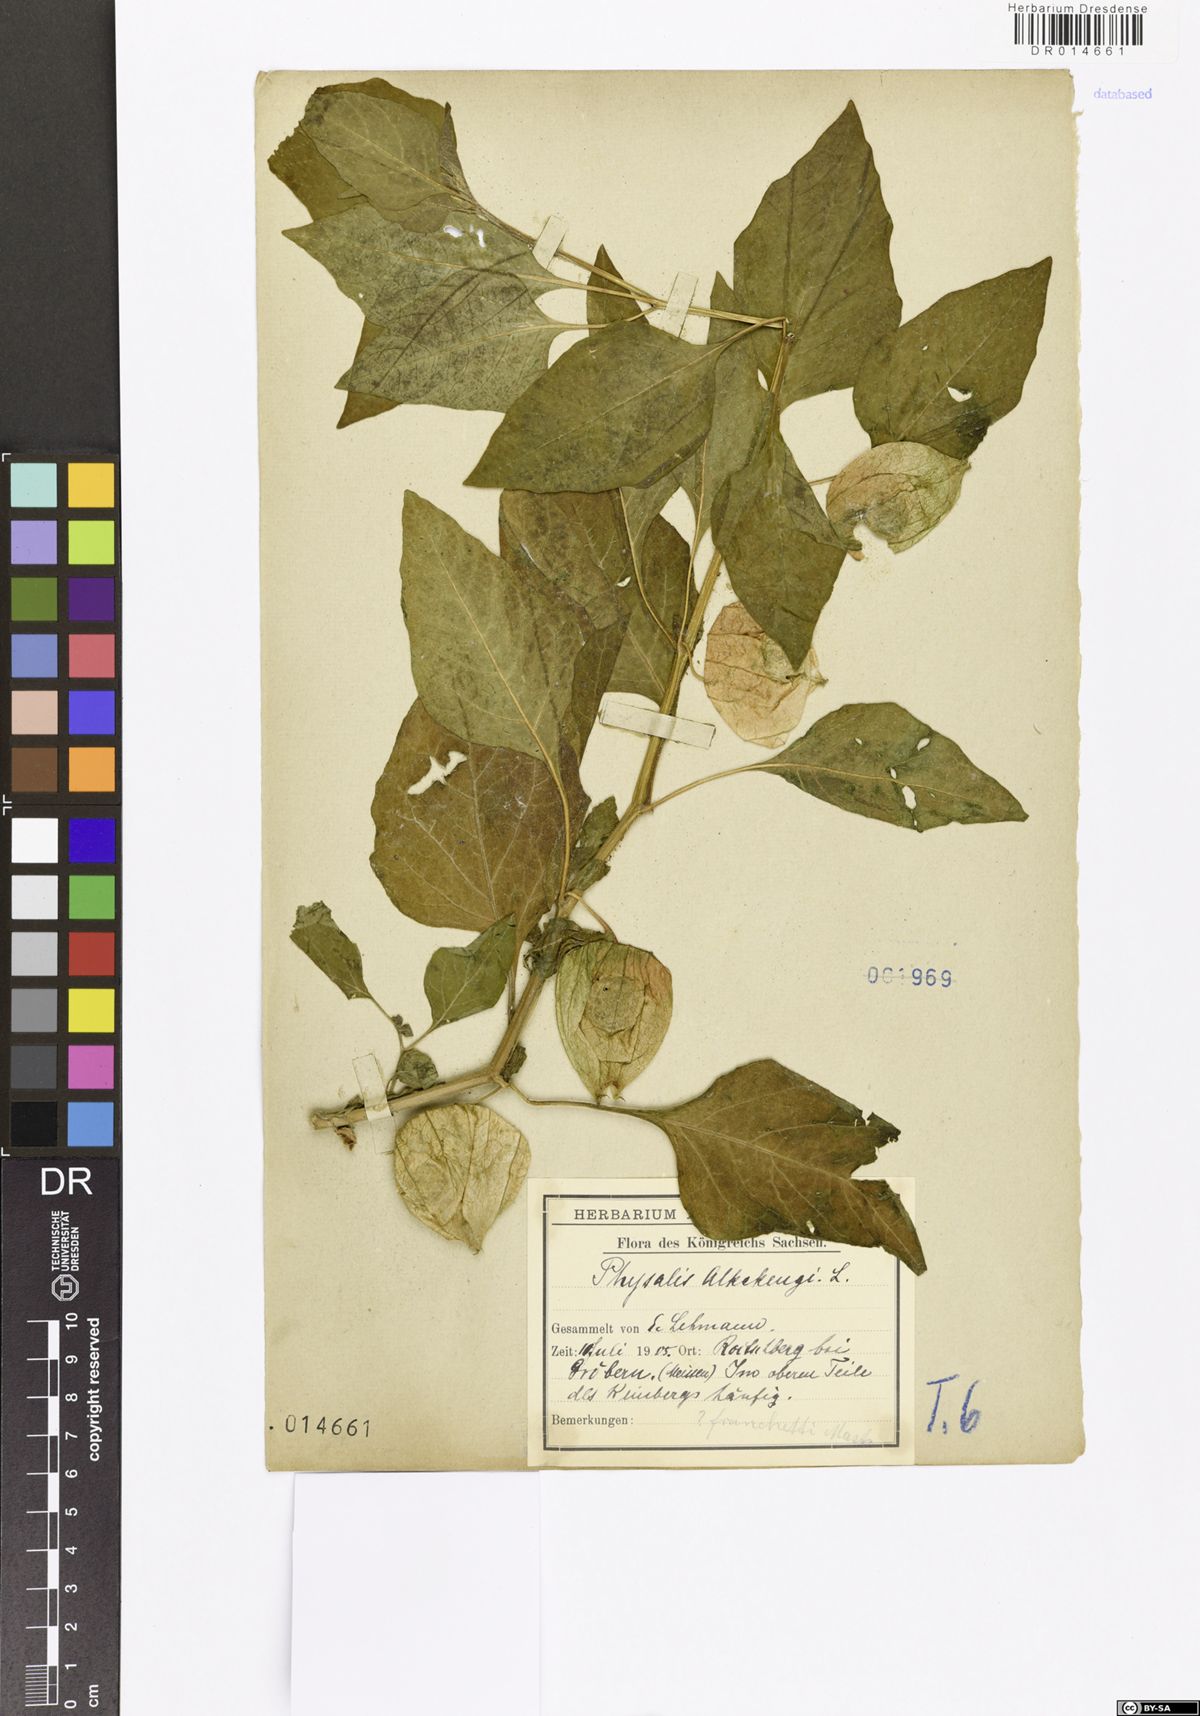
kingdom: Plantae
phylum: Tracheophyta
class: Magnoliopsida
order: Solanales
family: Solanaceae
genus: Alkekengi
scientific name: Alkekengi officinarum
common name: Japanese-lantern
